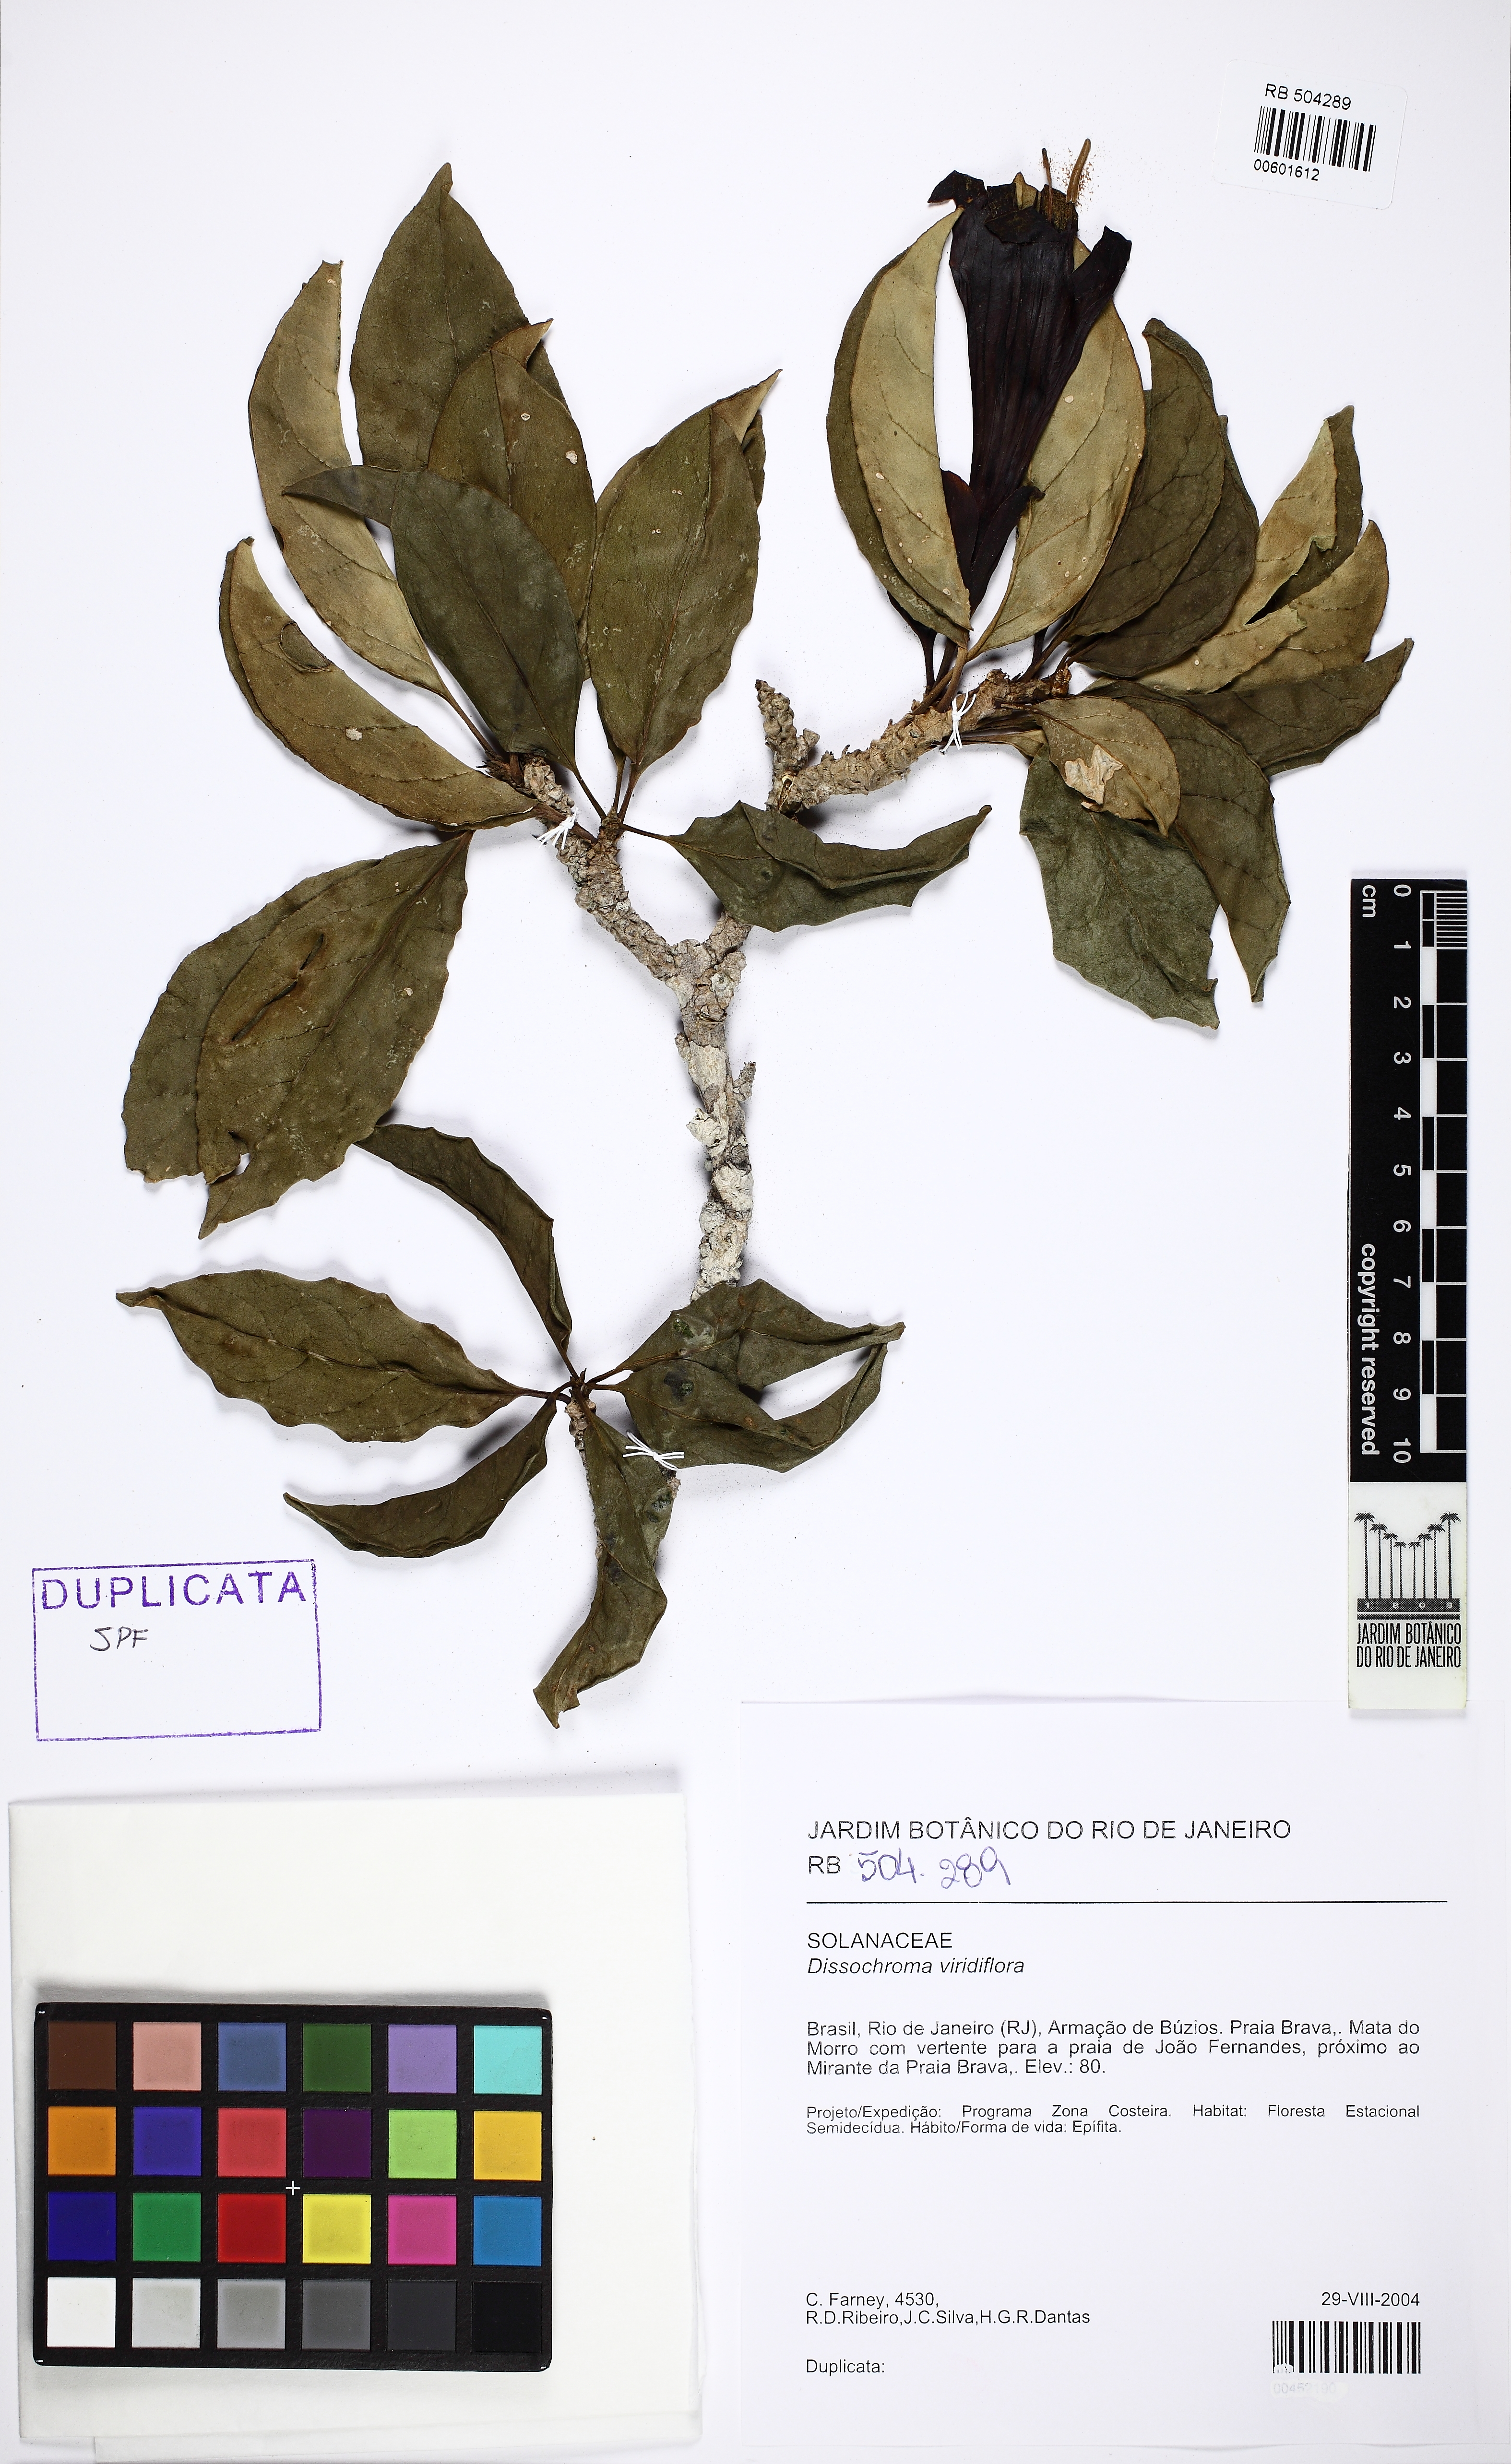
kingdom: Plantae
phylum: Tracheophyta
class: Magnoliopsida
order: Solanales
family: Solanaceae
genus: Dyssochroma
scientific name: Dyssochroma viridiflorum
